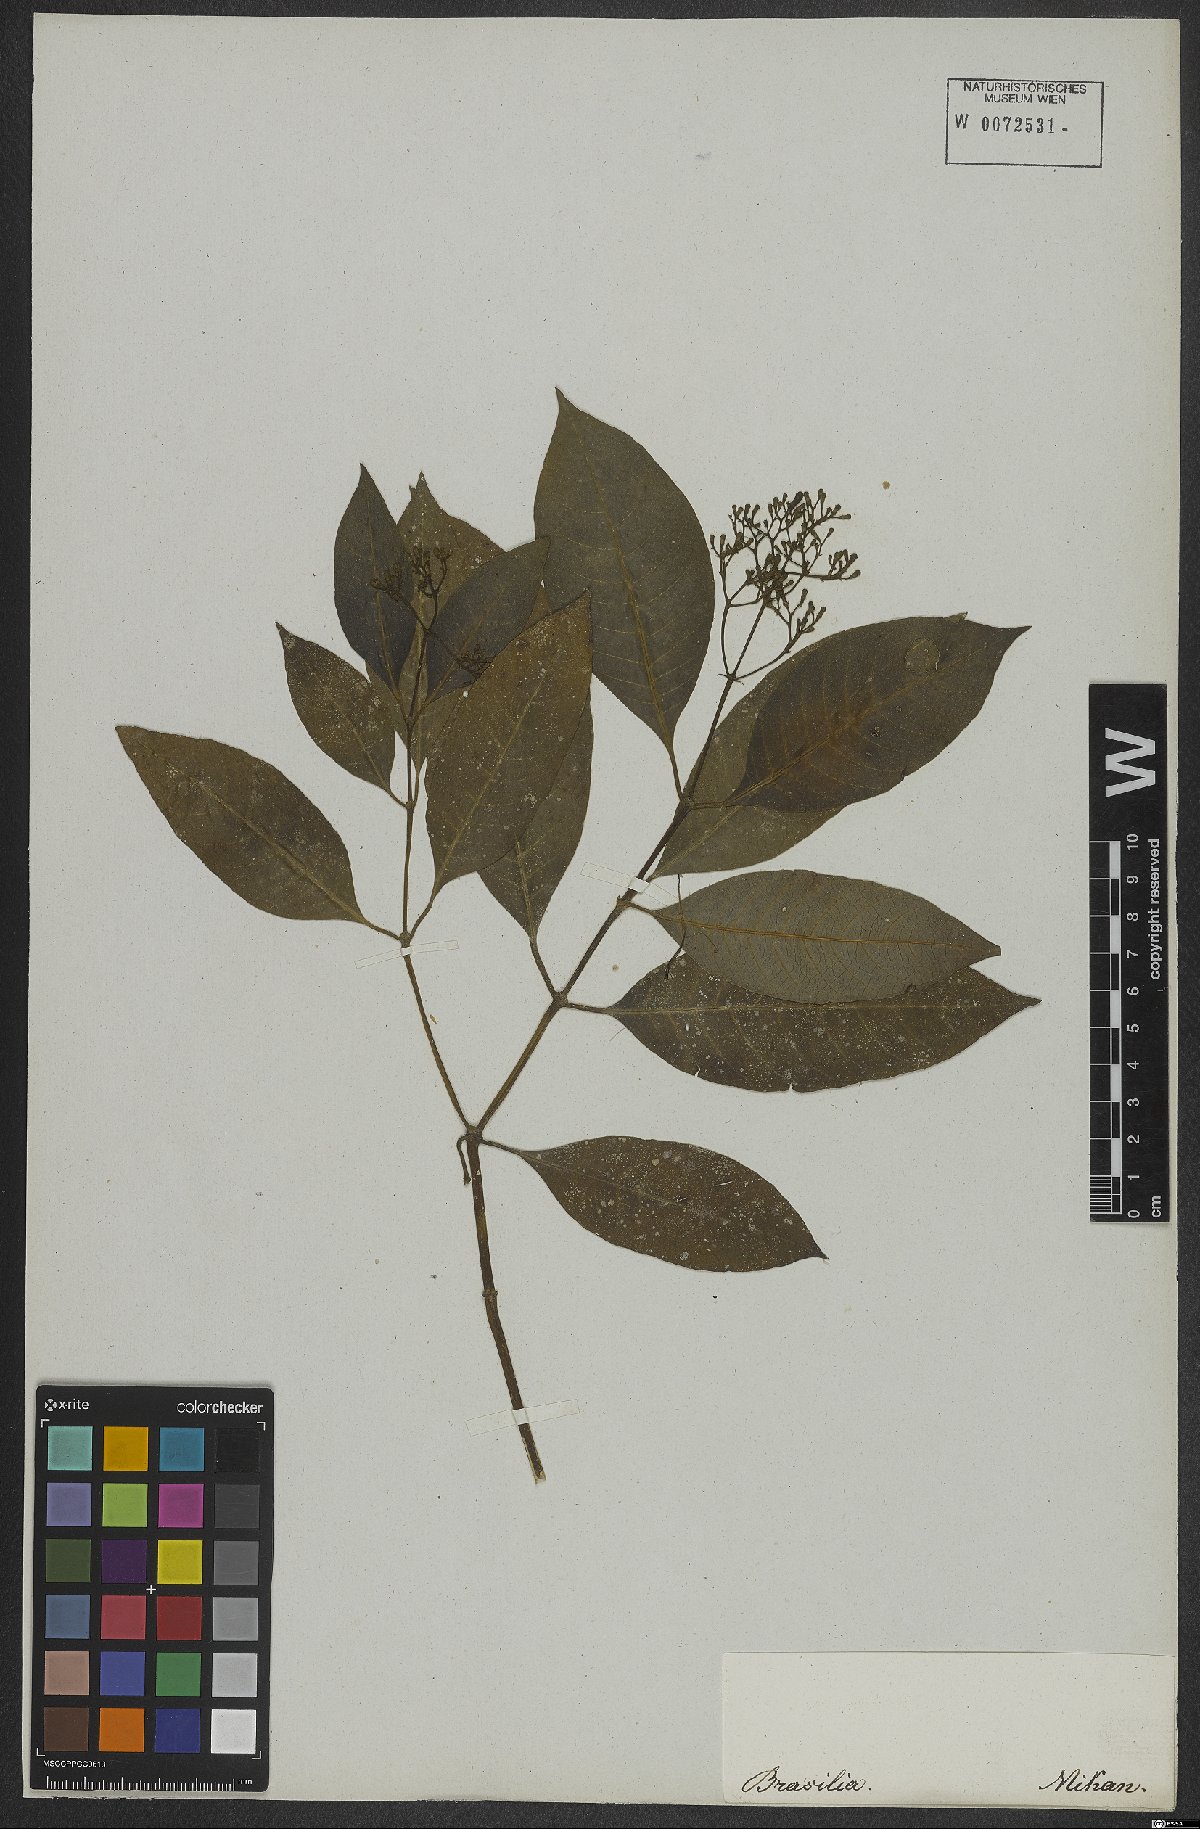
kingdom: Plantae
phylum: Tracheophyta
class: Magnoliopsida
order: Gentianales
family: Rubiaceae
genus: Psychotria
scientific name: Psychotria nemorosa
